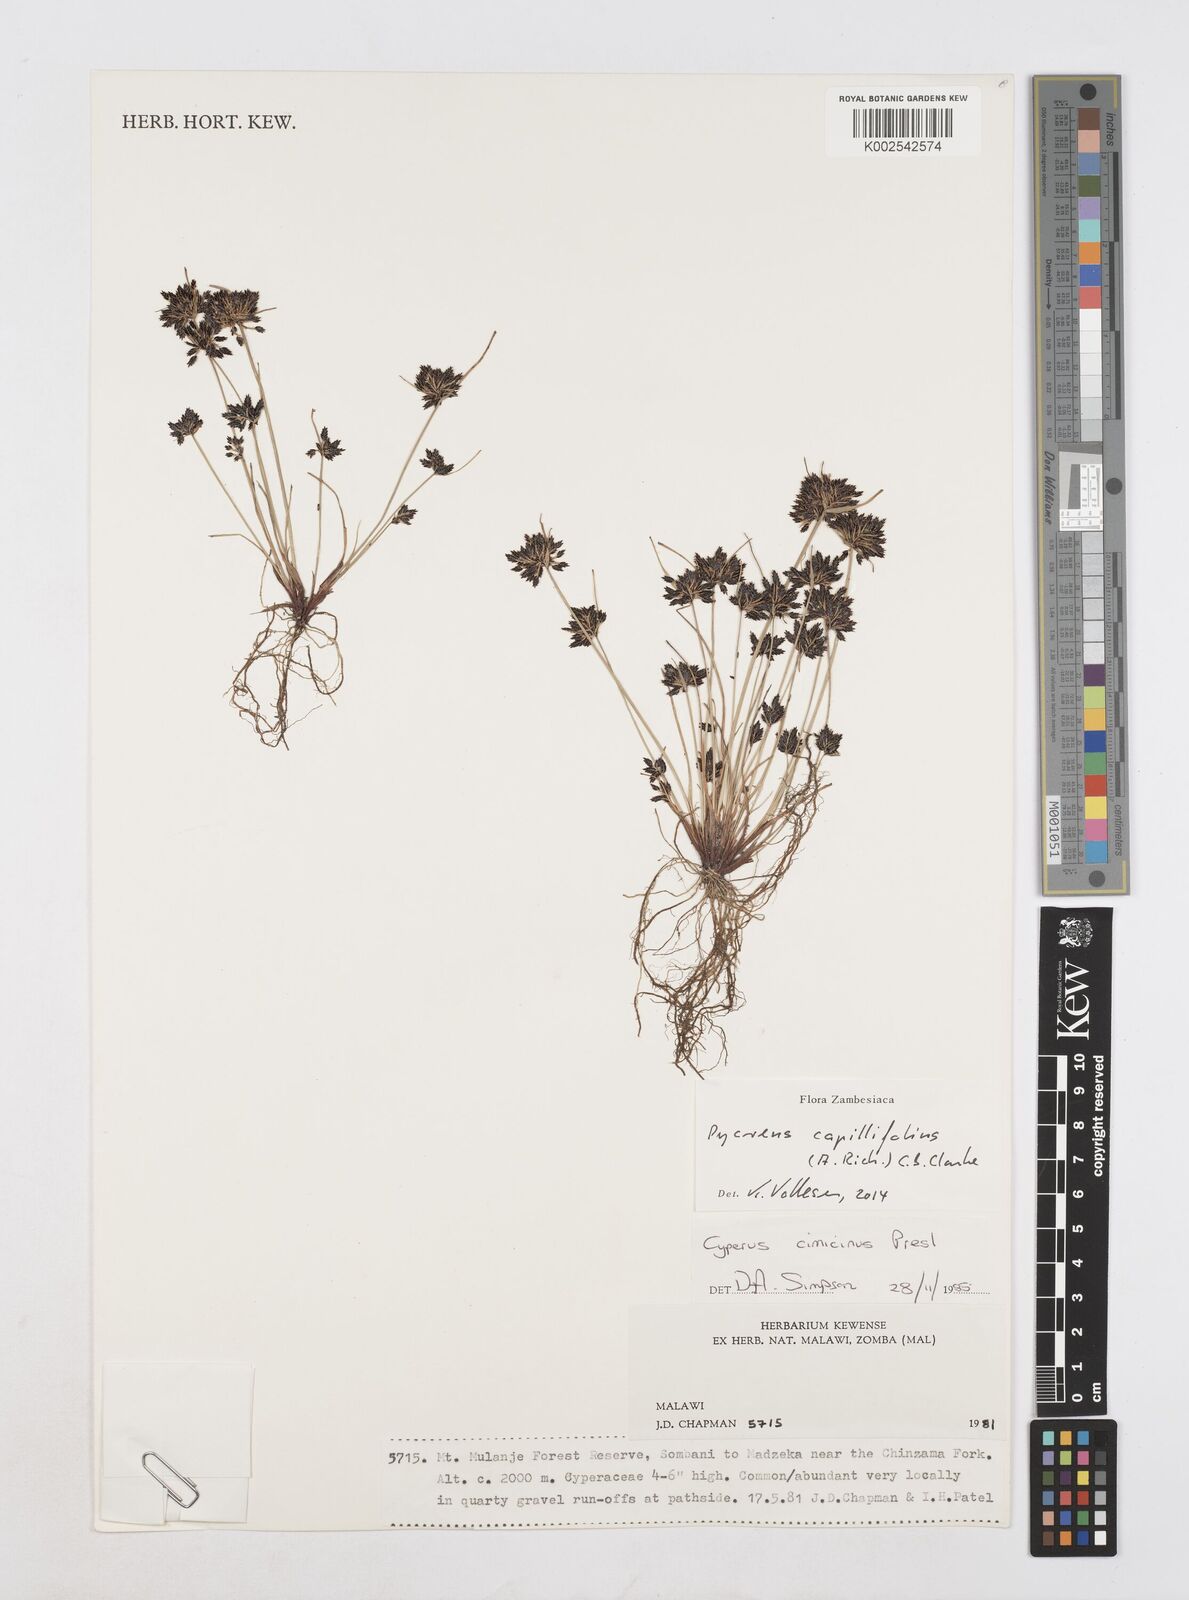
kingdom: Plantae
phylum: Tracheophyta
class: Liliopsida
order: Poales
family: Cyperaceae
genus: Cyperus
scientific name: Cyperus capillifolius
